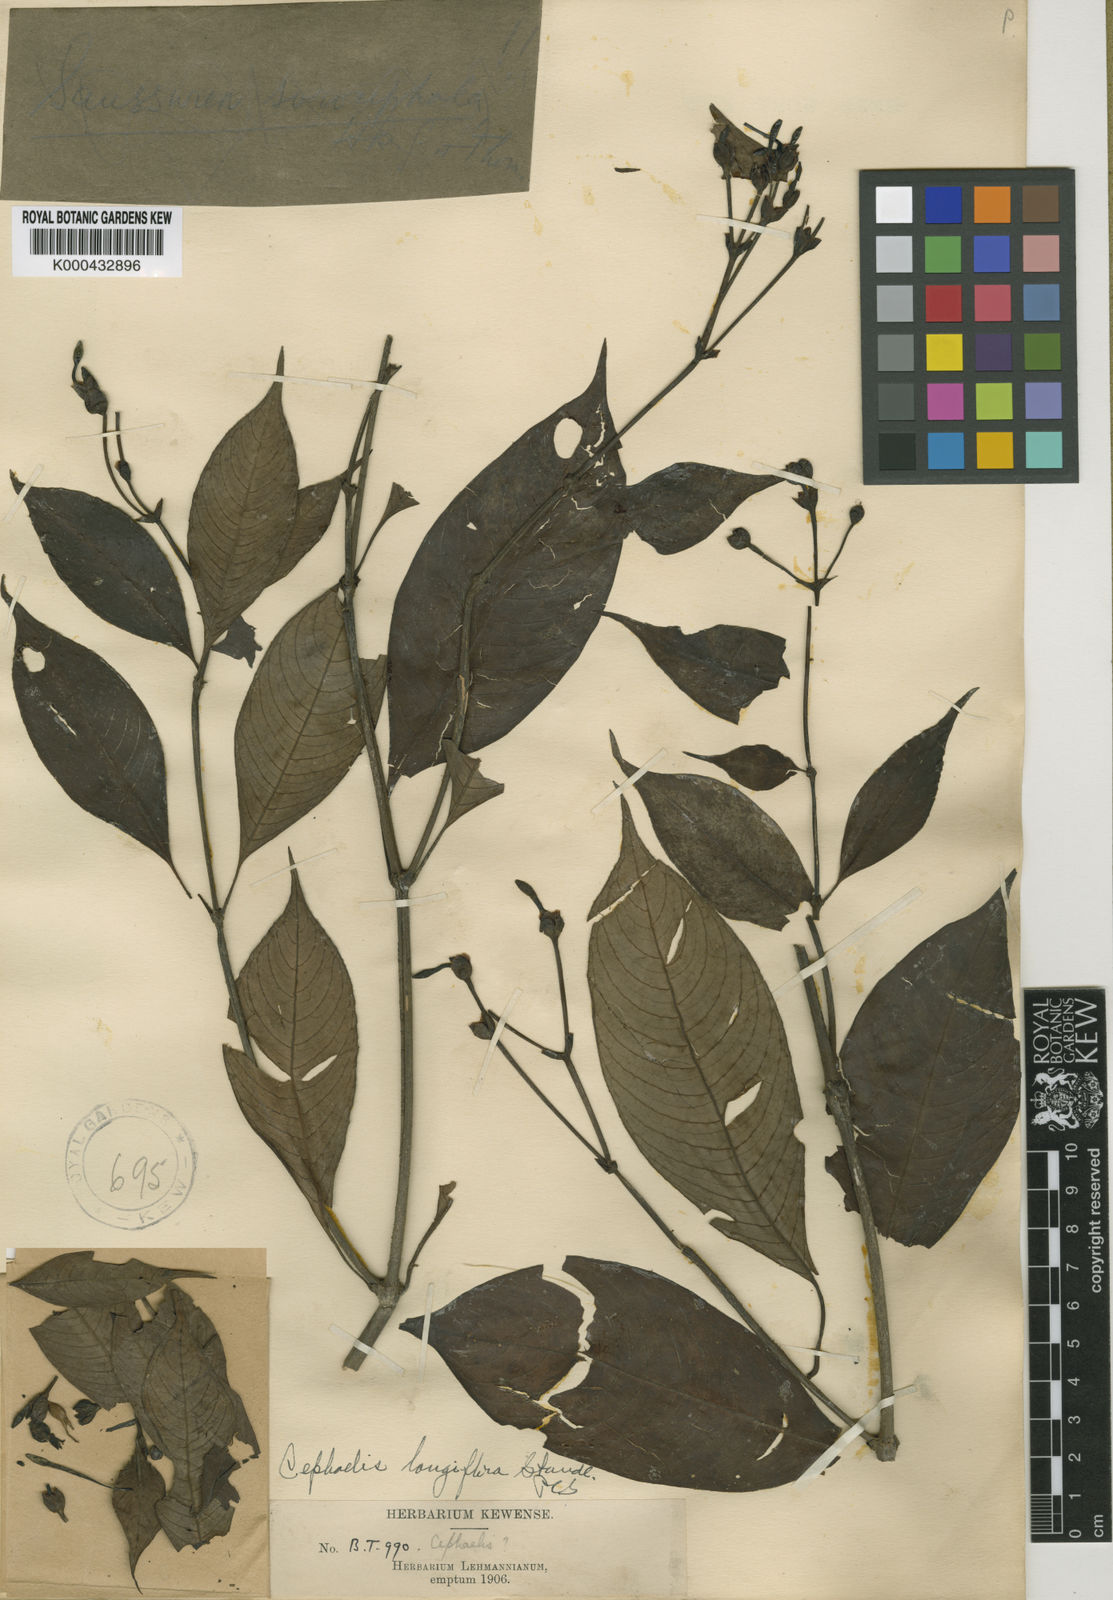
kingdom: Plantae
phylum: Tracheophyta
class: Magnoliopsida
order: Gentianales
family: Rubiaceae
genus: Psychotria
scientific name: Psychotria
